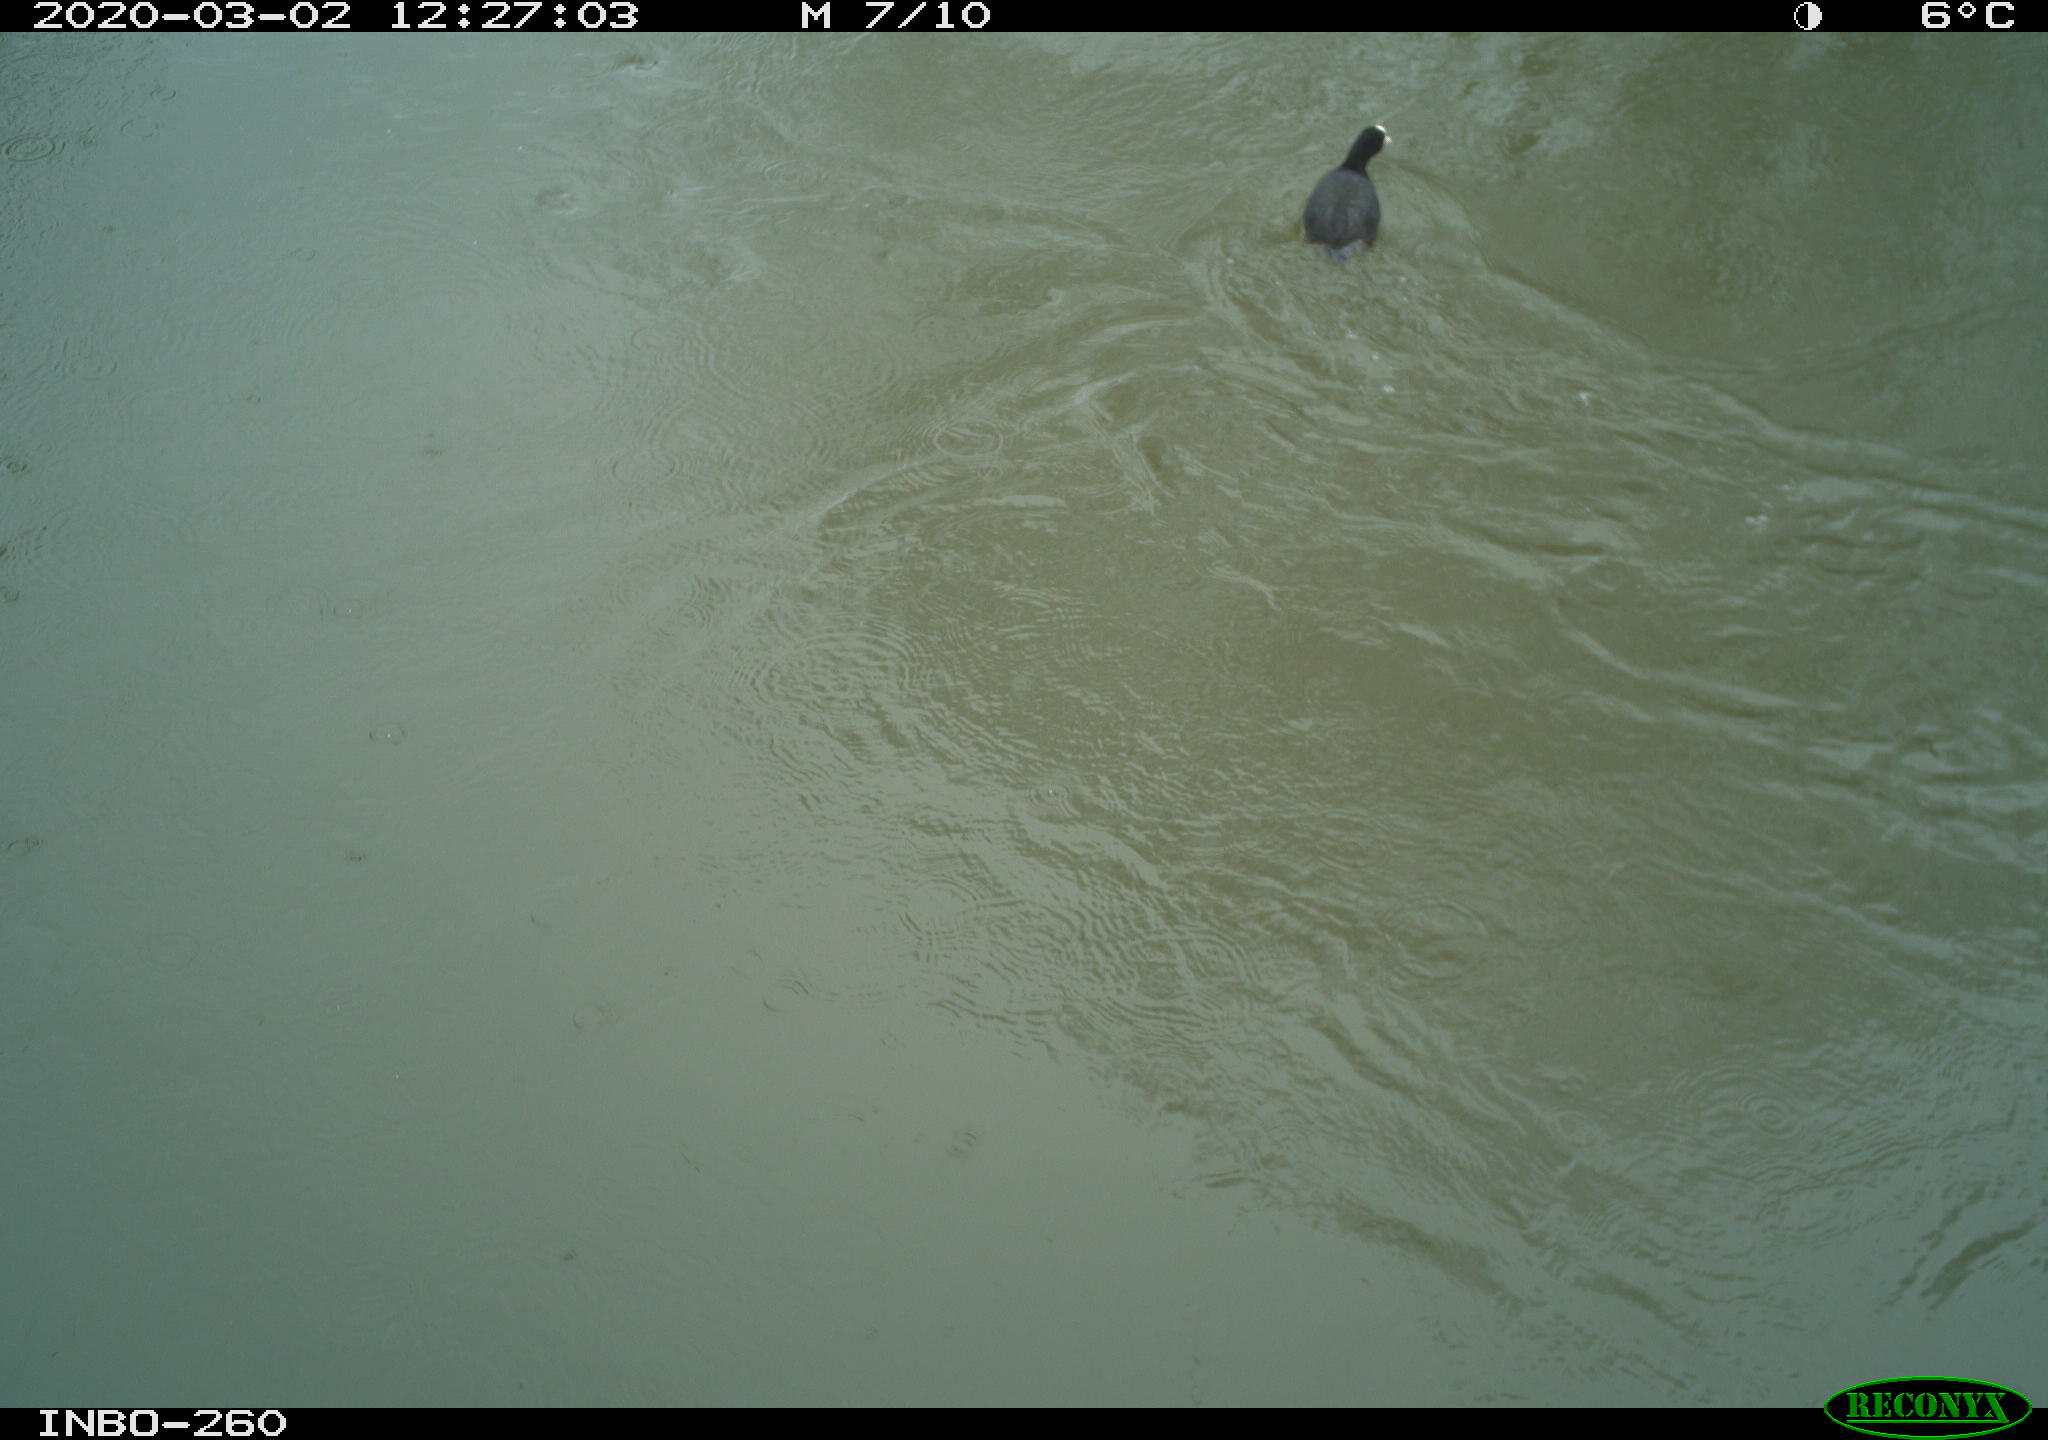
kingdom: Animalia
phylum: Chordata
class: Aves
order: Gruiformes
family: Rallidae
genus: Fulica
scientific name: Fulica atra
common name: Eurasian coot
